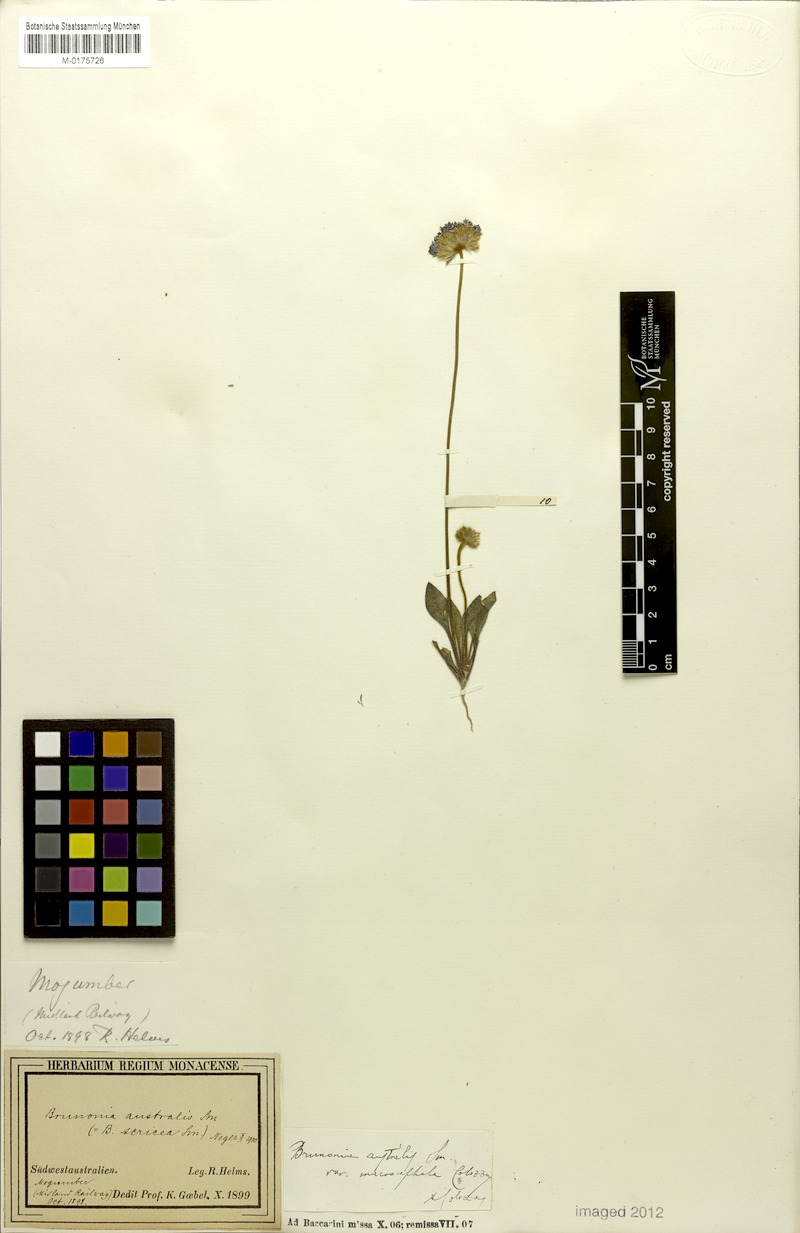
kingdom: Plantae
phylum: Tracheophyta
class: Magnoliopsida
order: Asterales
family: Goodeniaceae
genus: Brunonia
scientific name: Brunonia australis
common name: Blue pincushion
